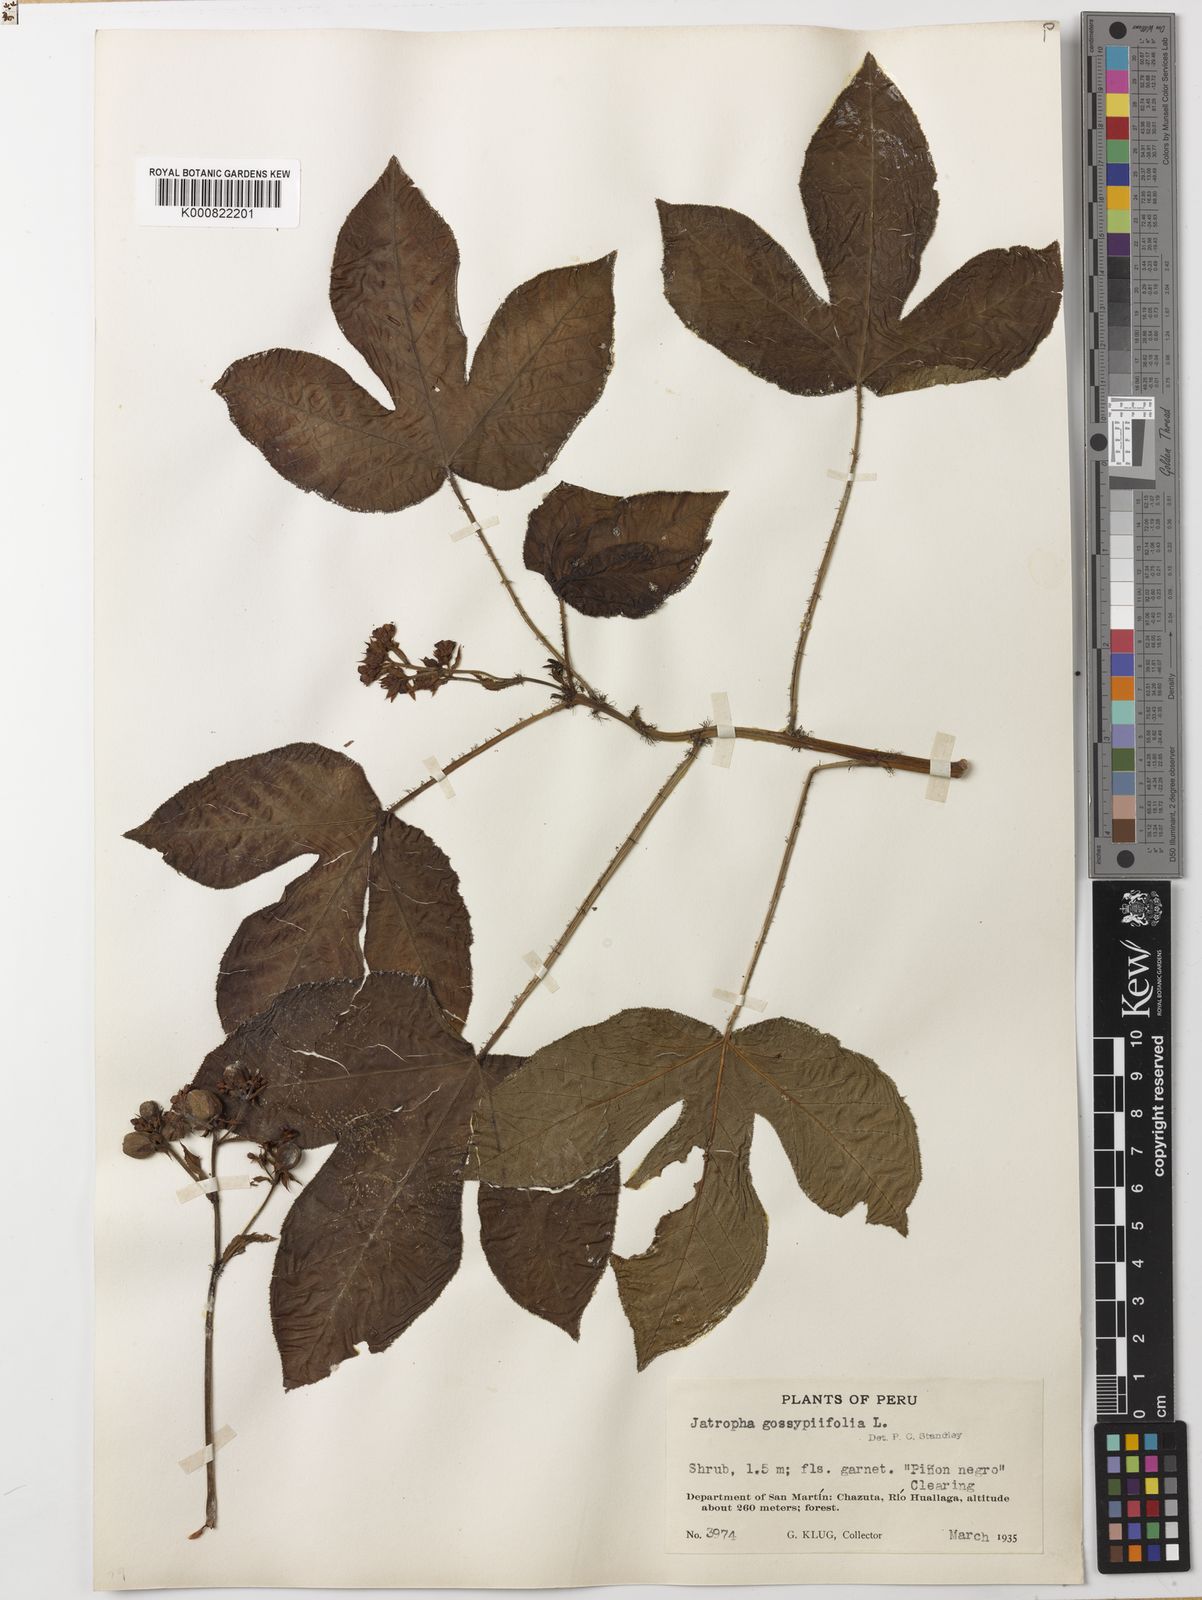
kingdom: Plantae
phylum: Tracheophyta
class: Magnoliopsida
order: Malpighiales
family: Euphorbiaceae
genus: Jatropha
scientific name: Jatropha gossypiifolia
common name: Bellyache bush
